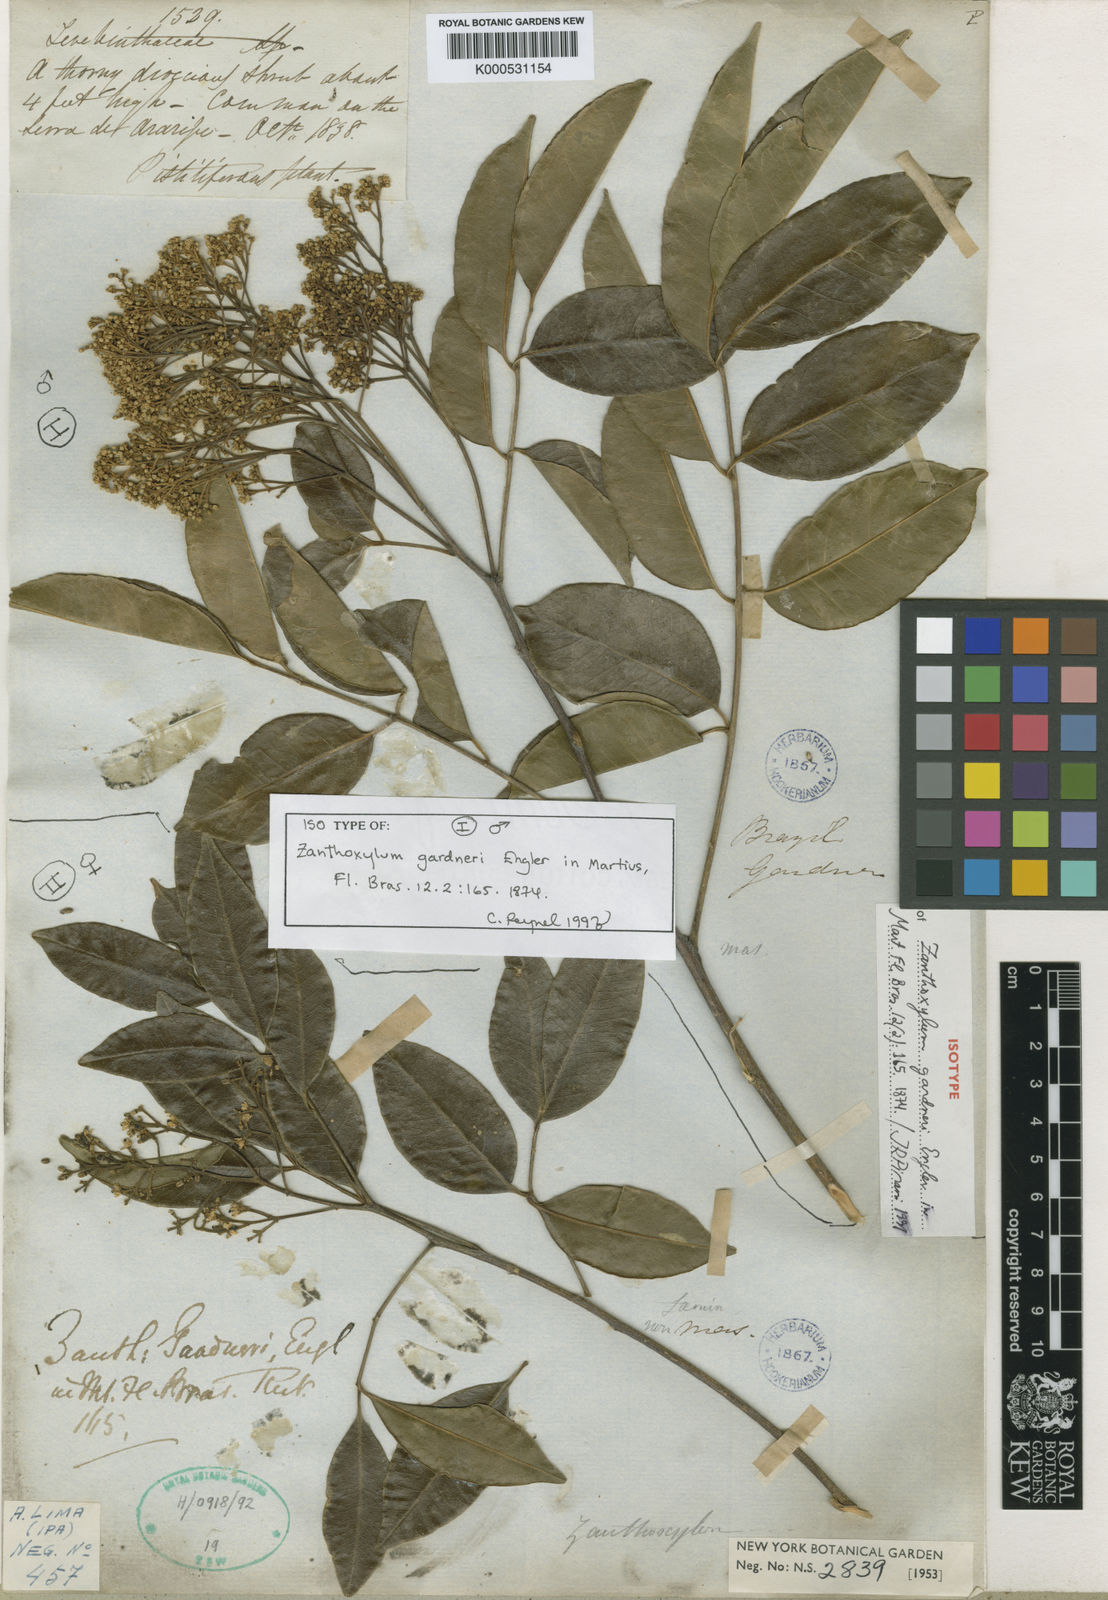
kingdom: Plantae
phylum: Tracheophyta
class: Magnoliopsida
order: Sapindales
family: Rutaceae
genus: Zanthoxylum
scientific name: Zanthoxylum gardneri
